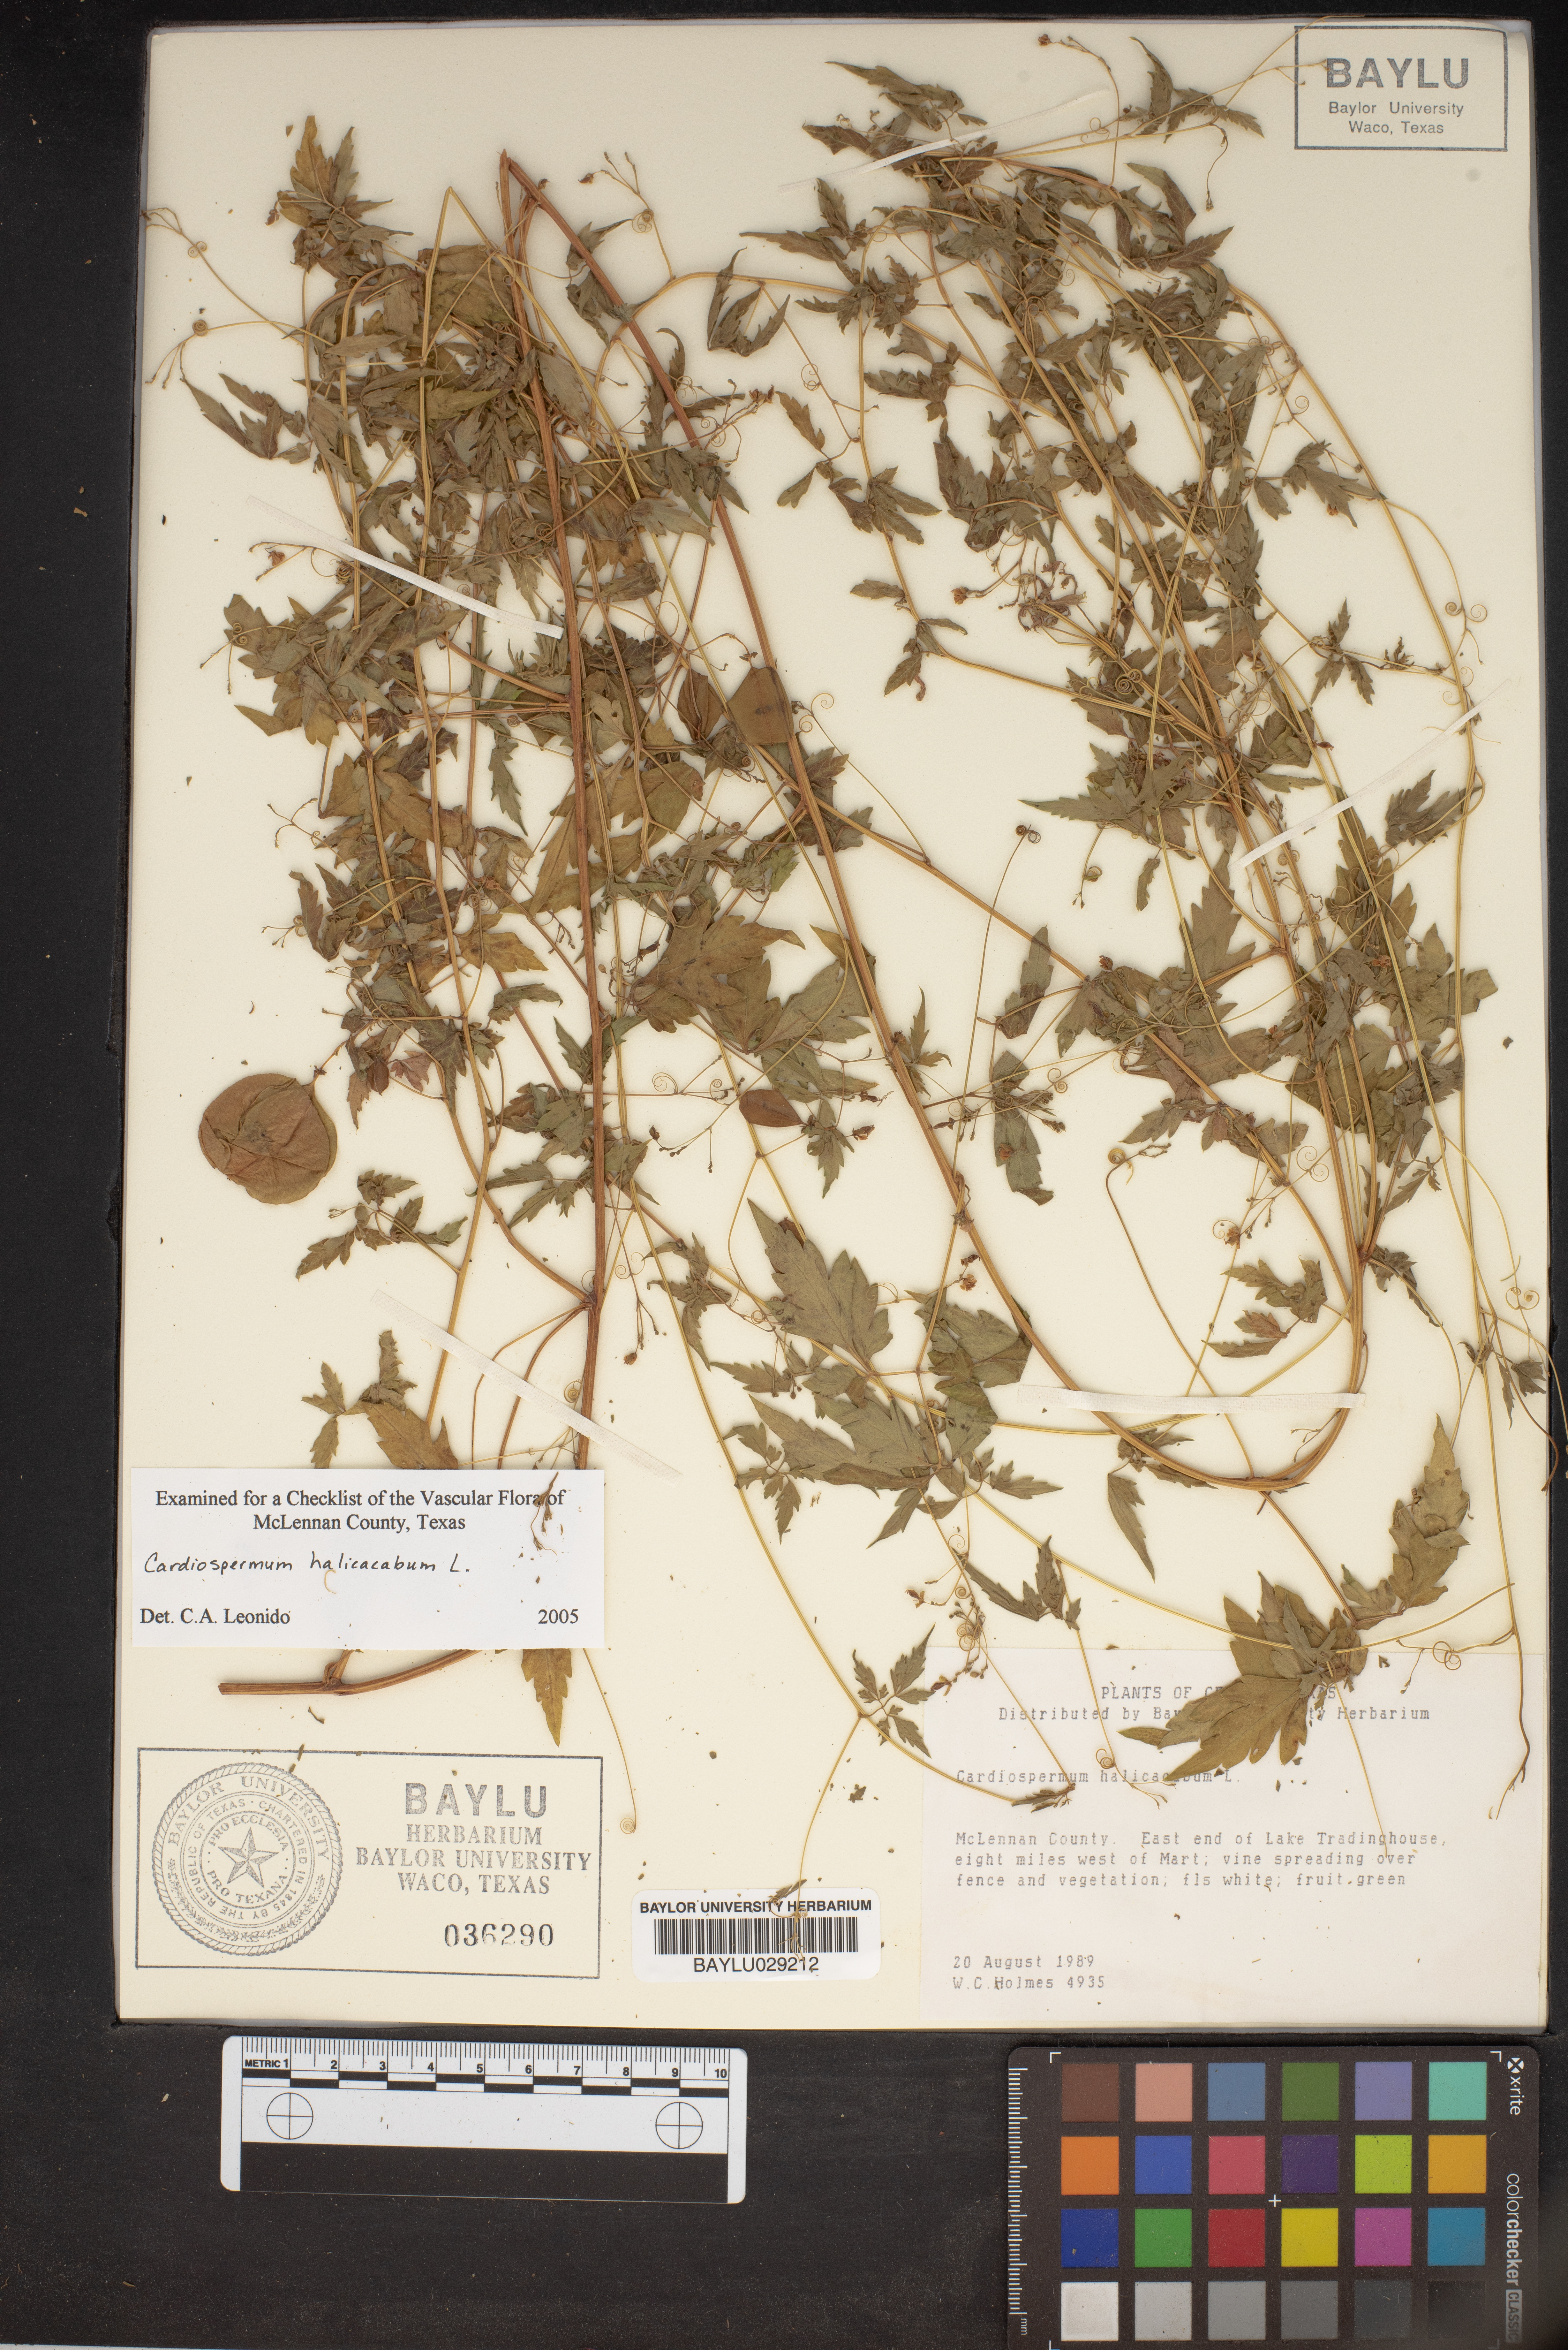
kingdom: Plantae
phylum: Tracheophyta
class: Magnoliopsida
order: Sapindales
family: Sapindaceae
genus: Cardiospermum
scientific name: Cardiospermum halicacabum
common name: Balloon vine
